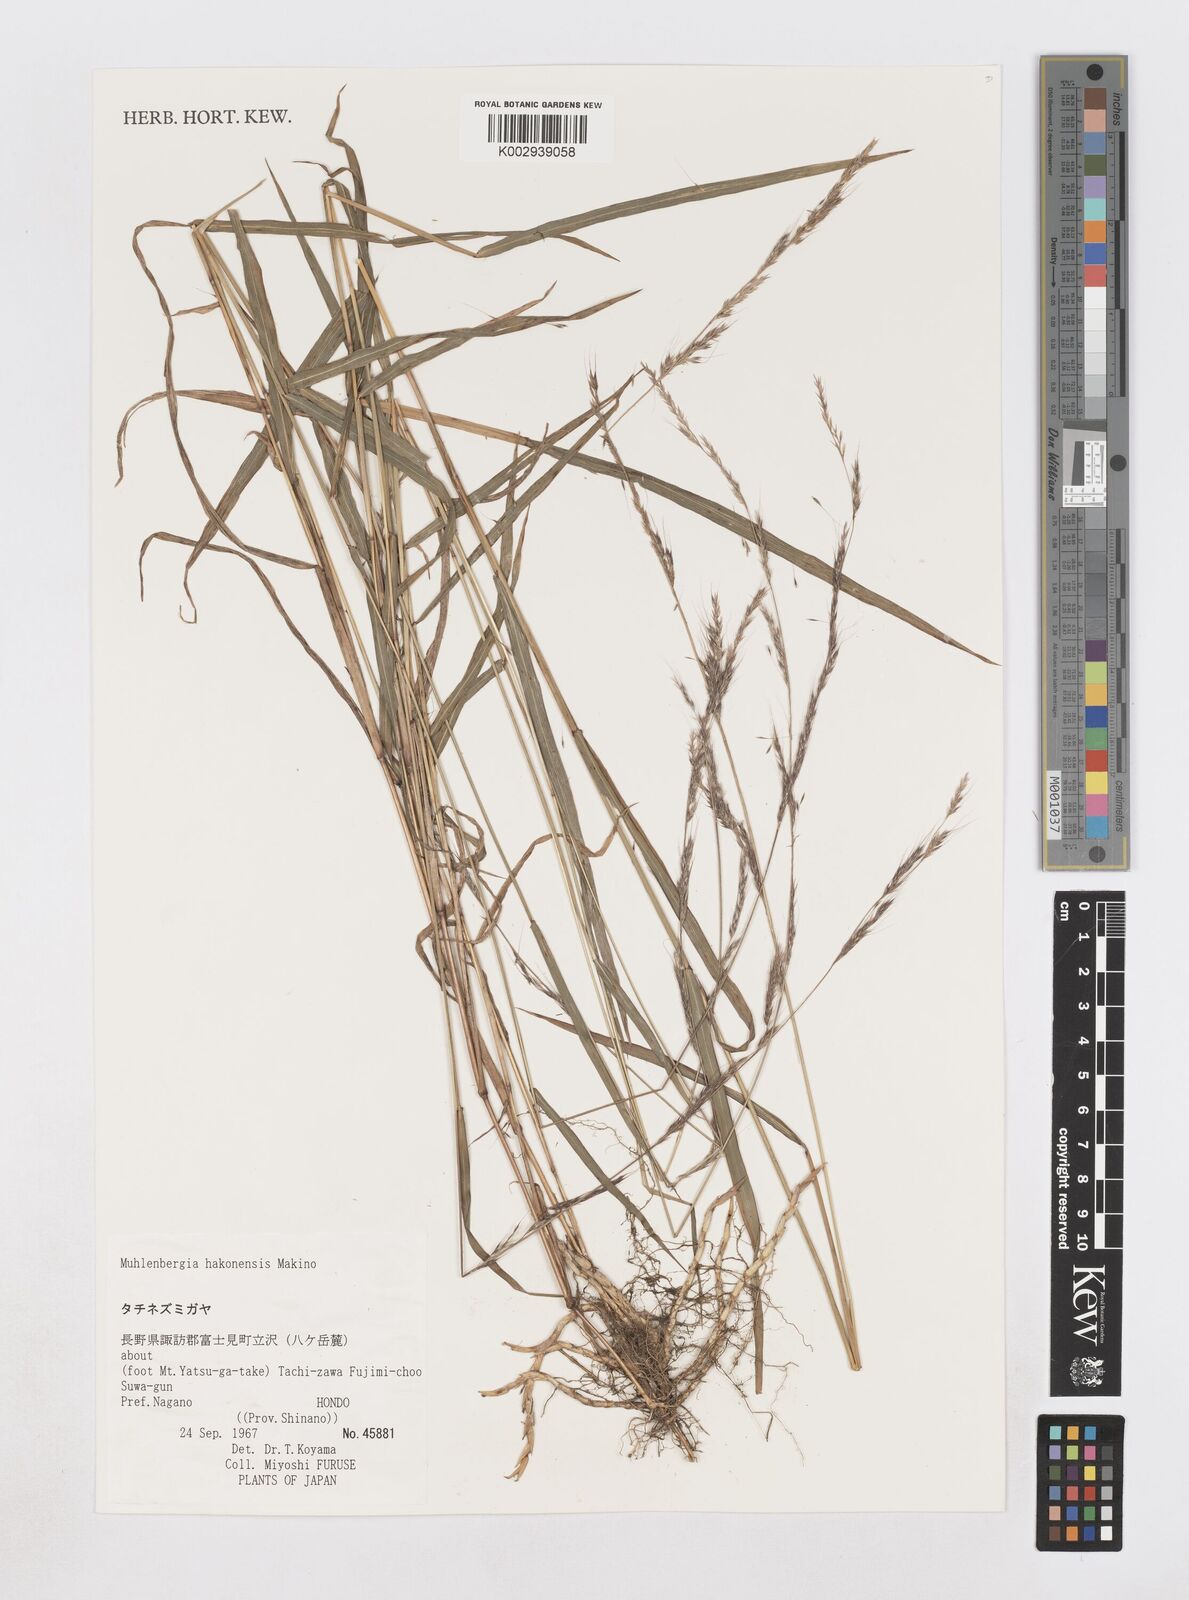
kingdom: Plantae
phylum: Tracheophyta
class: Liliopsida
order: Poales
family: Poaceae
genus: Muhlenbergia
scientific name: Muhlenbergia hakonensis
